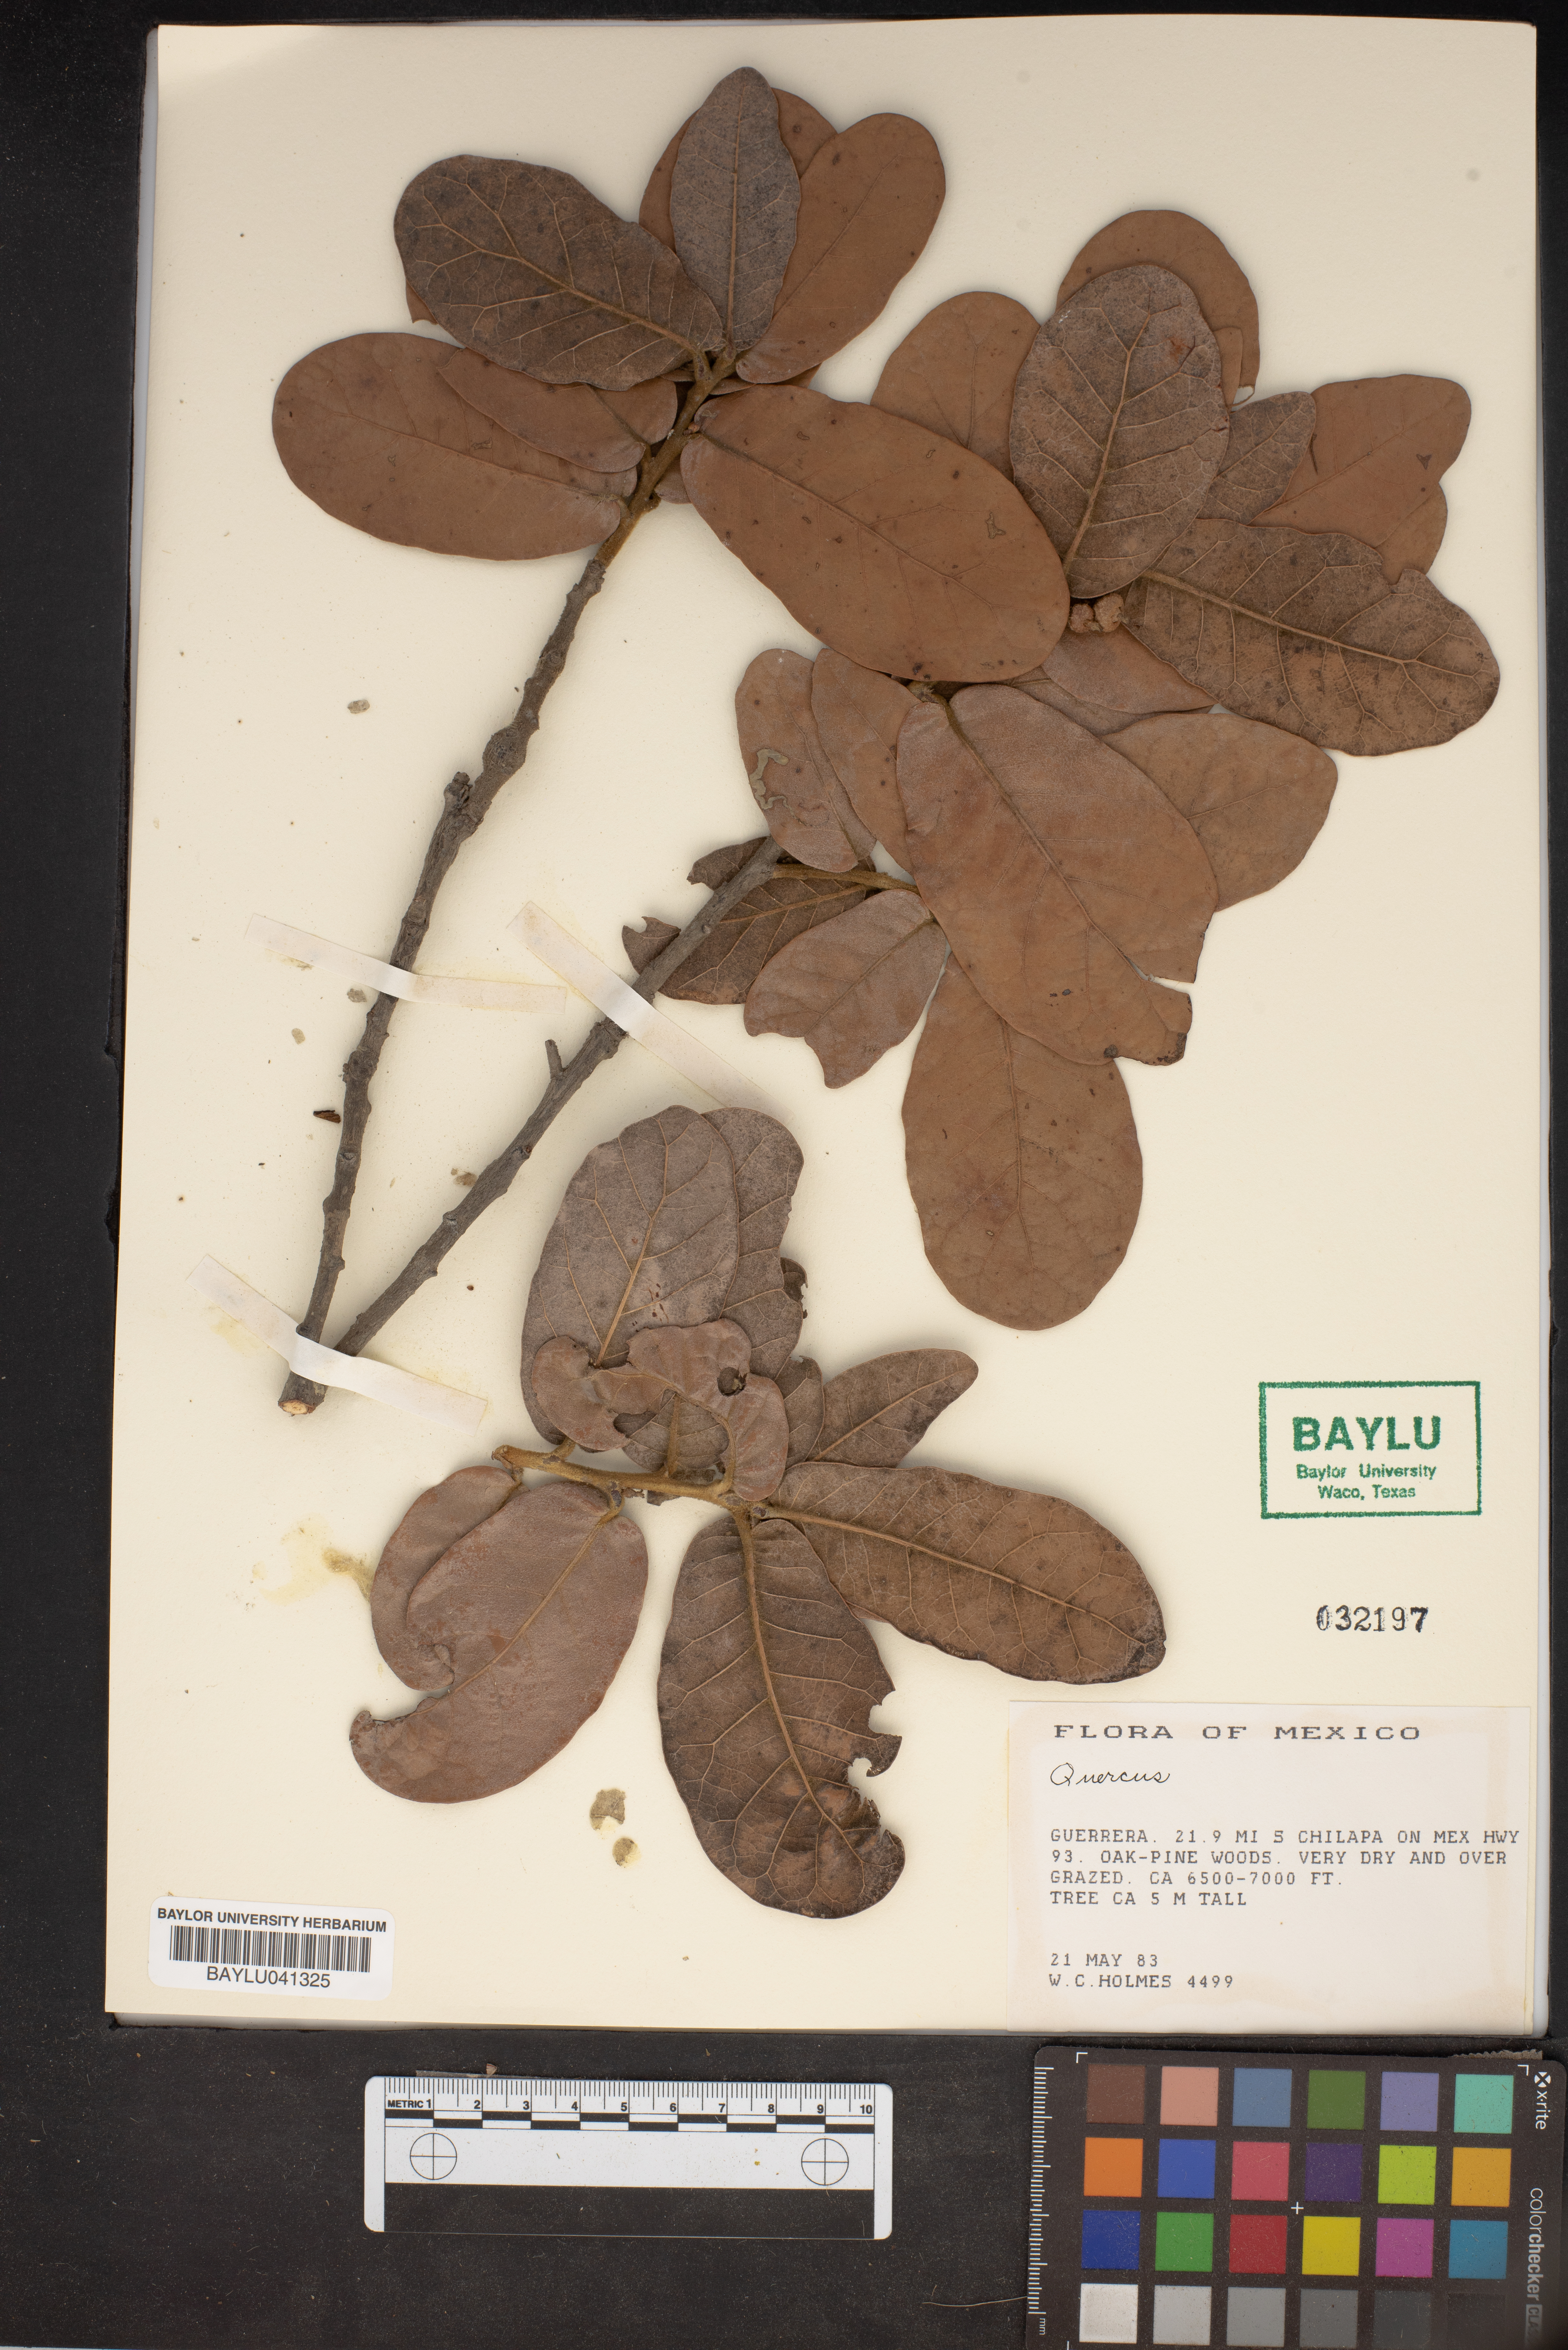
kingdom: Plantae
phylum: Tracheophyta
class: Magnoliopsida
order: Fagales
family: Fagaceae
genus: Quercus
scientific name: Quercus
